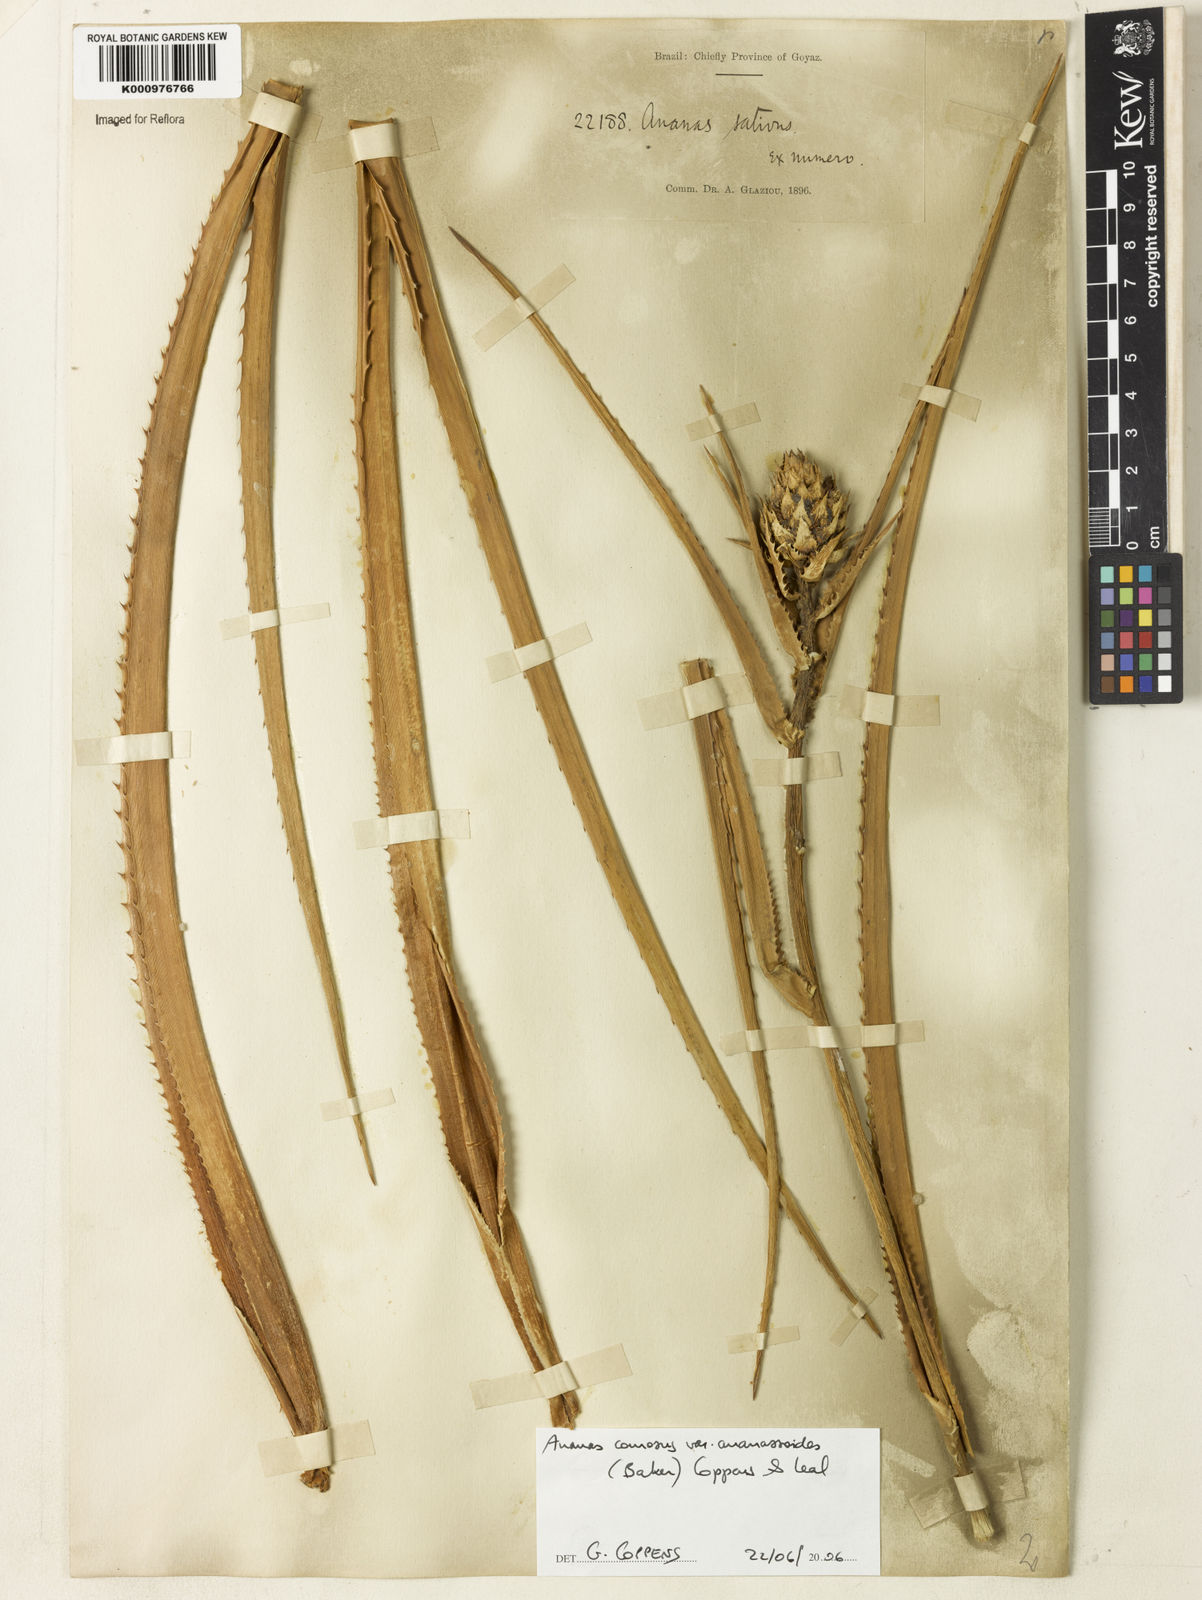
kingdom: Plantae
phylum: Tracheophyta
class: Liliopsida
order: Poales
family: Bromeliaceae
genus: Ananas
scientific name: Ananas comosus
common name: Pineapple
